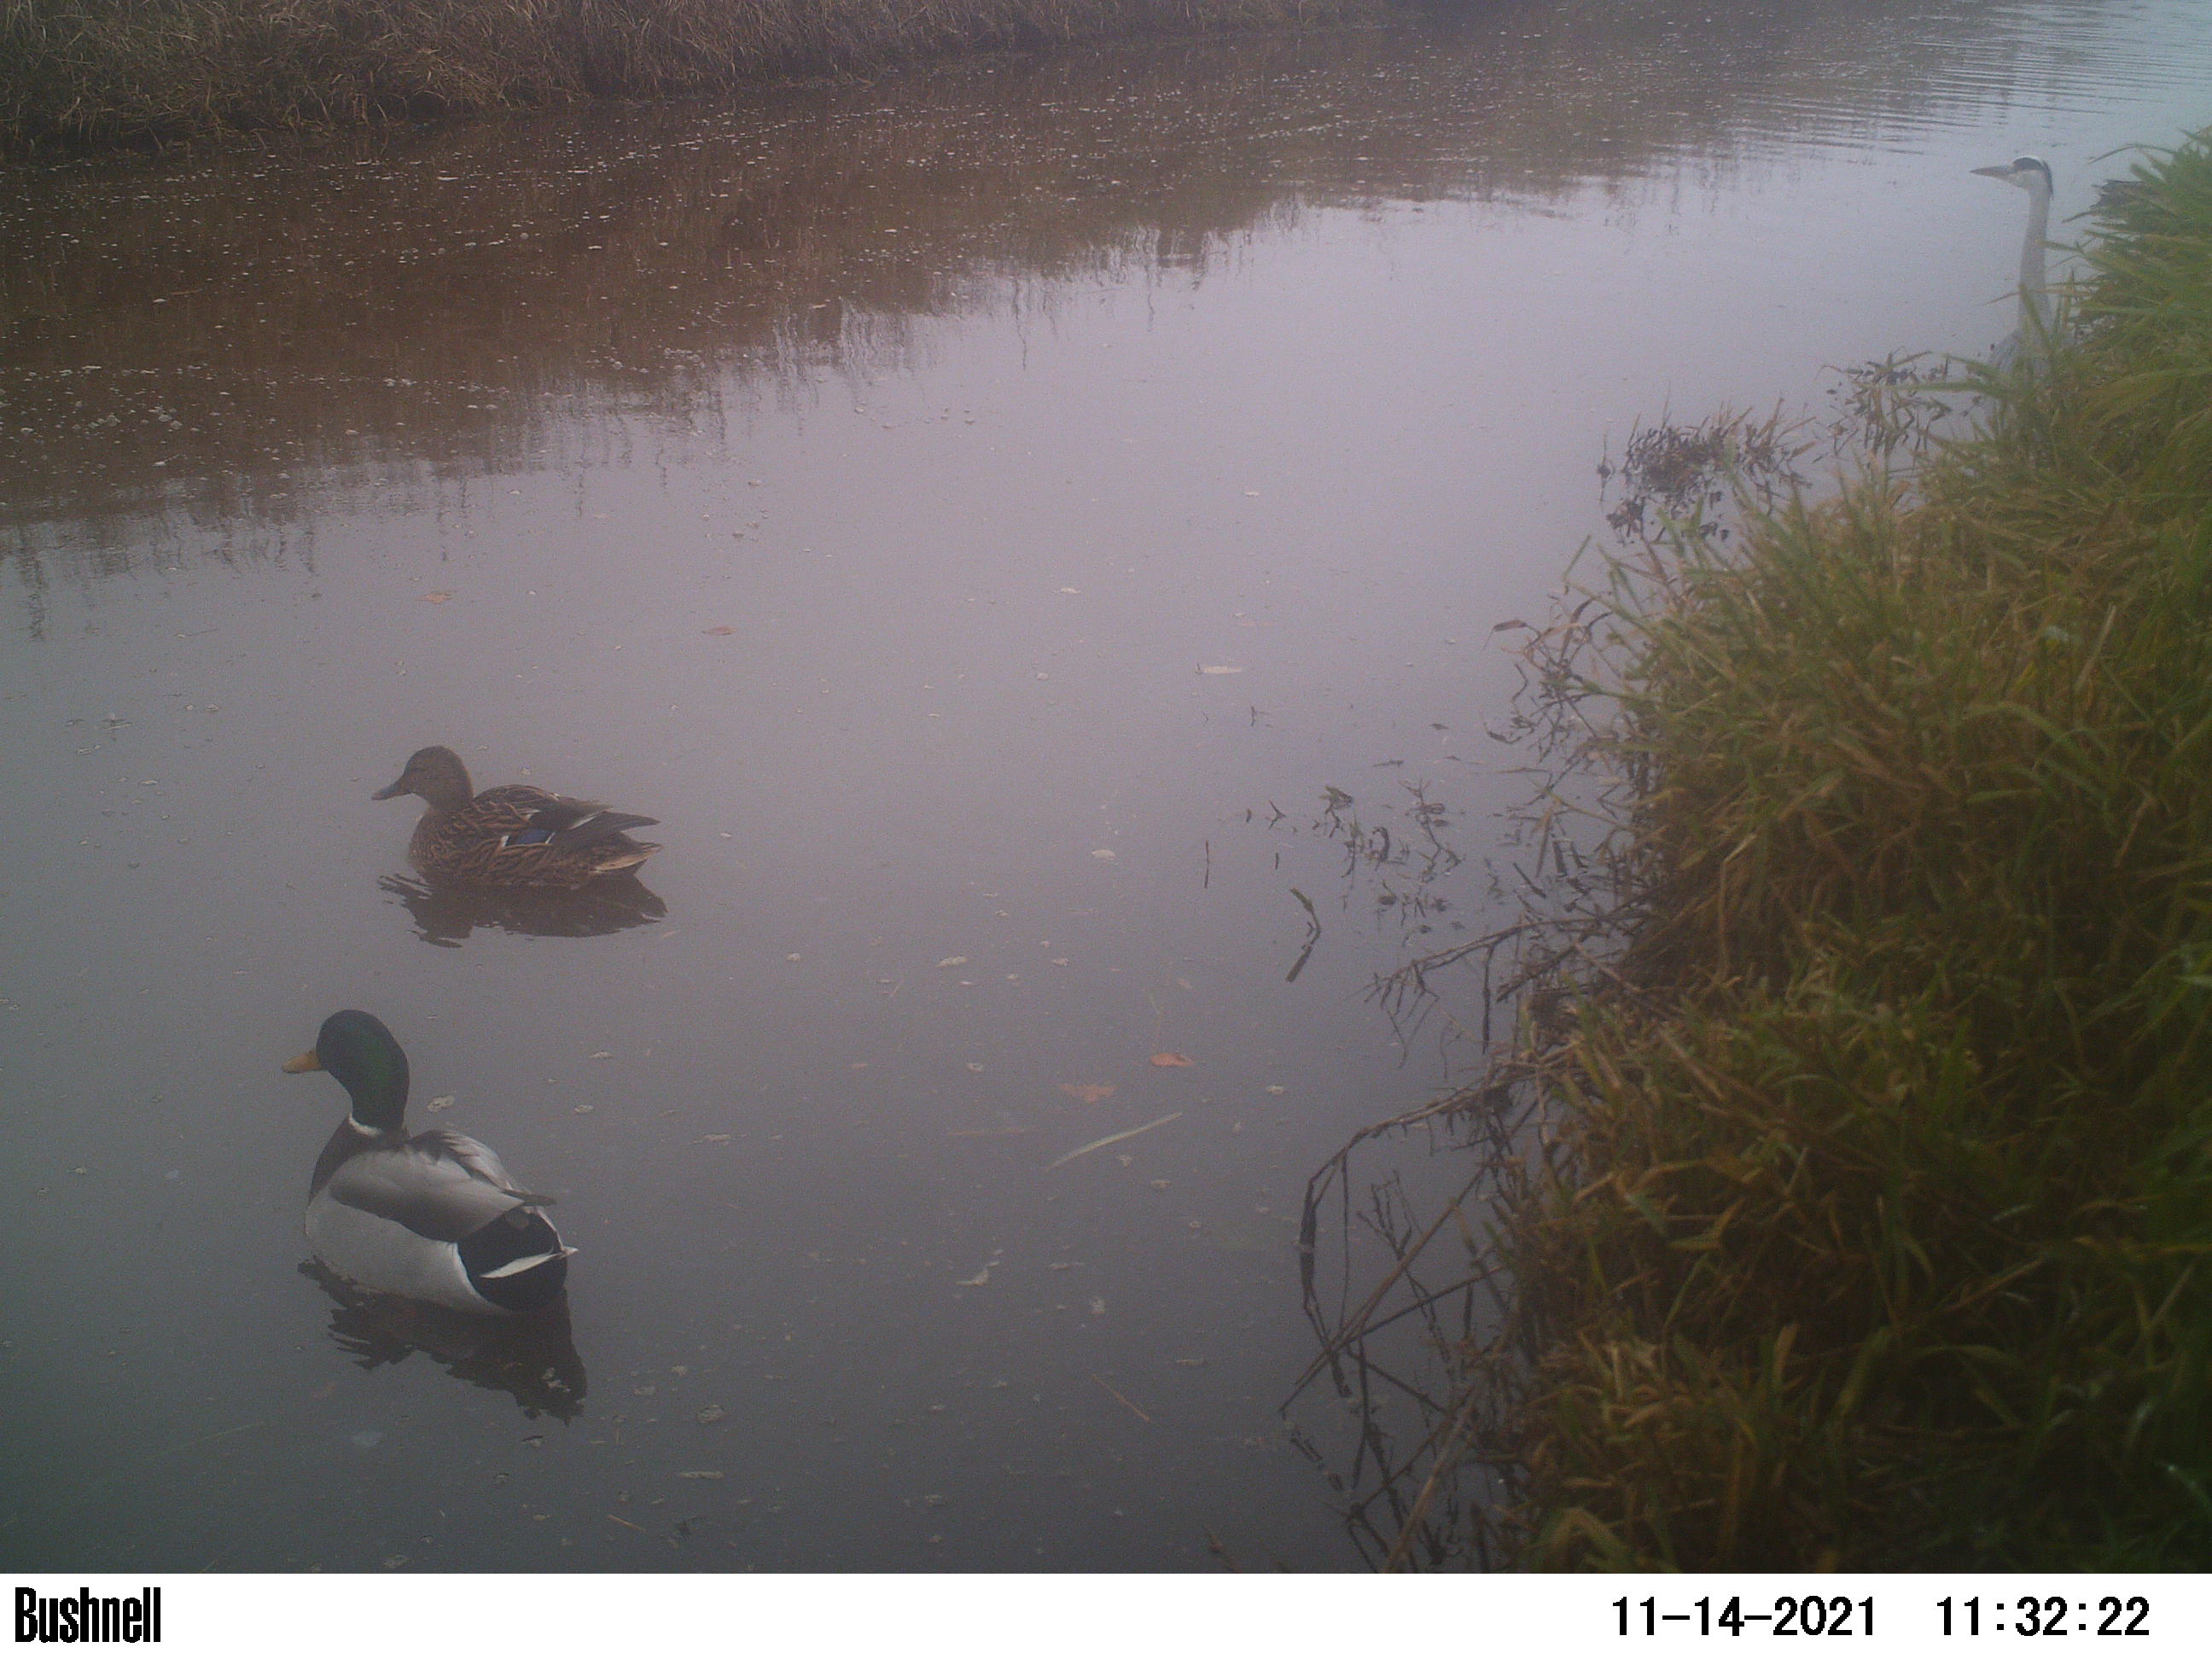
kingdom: Animalia
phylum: Chordata
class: Aves
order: Anseriformes
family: Anatidae
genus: Anas
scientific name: Anas
